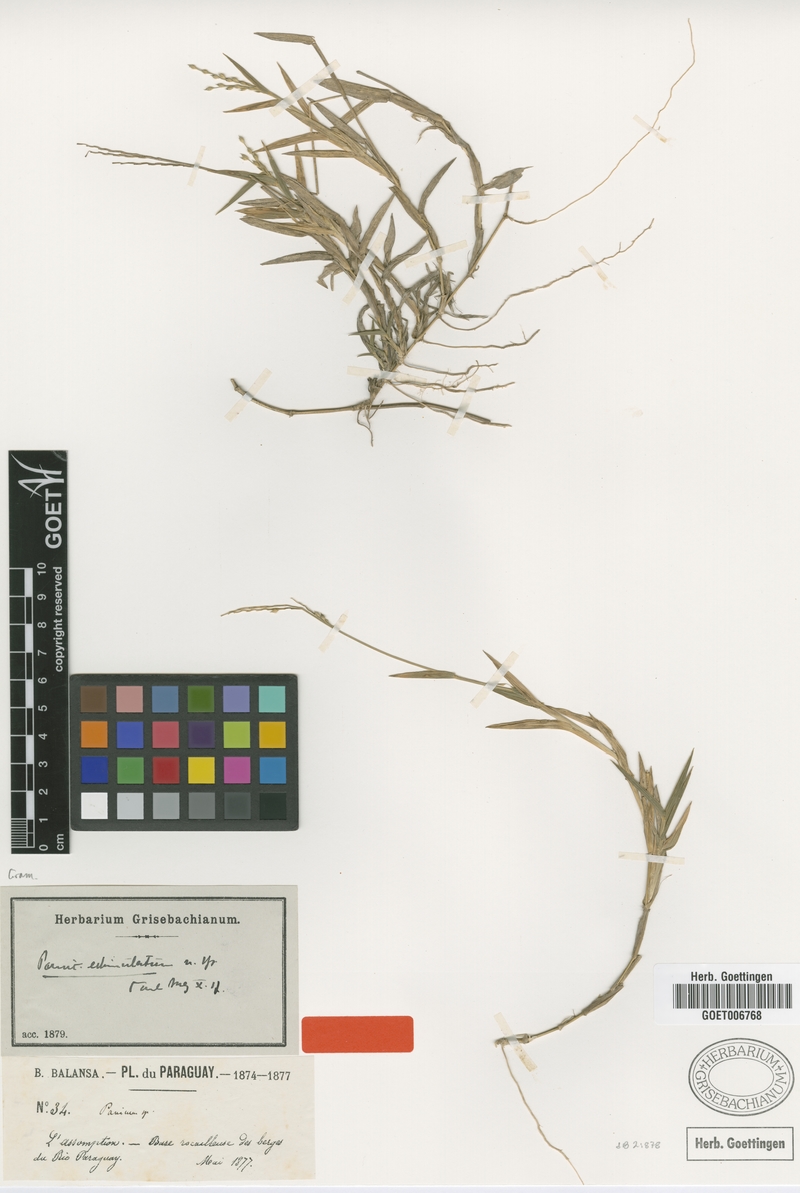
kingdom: Plantae
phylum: Tracheophyta
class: Liliopsida
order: Poales
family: Poaceae
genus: Urochloa
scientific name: Urochloa Brachiaria echinulata
